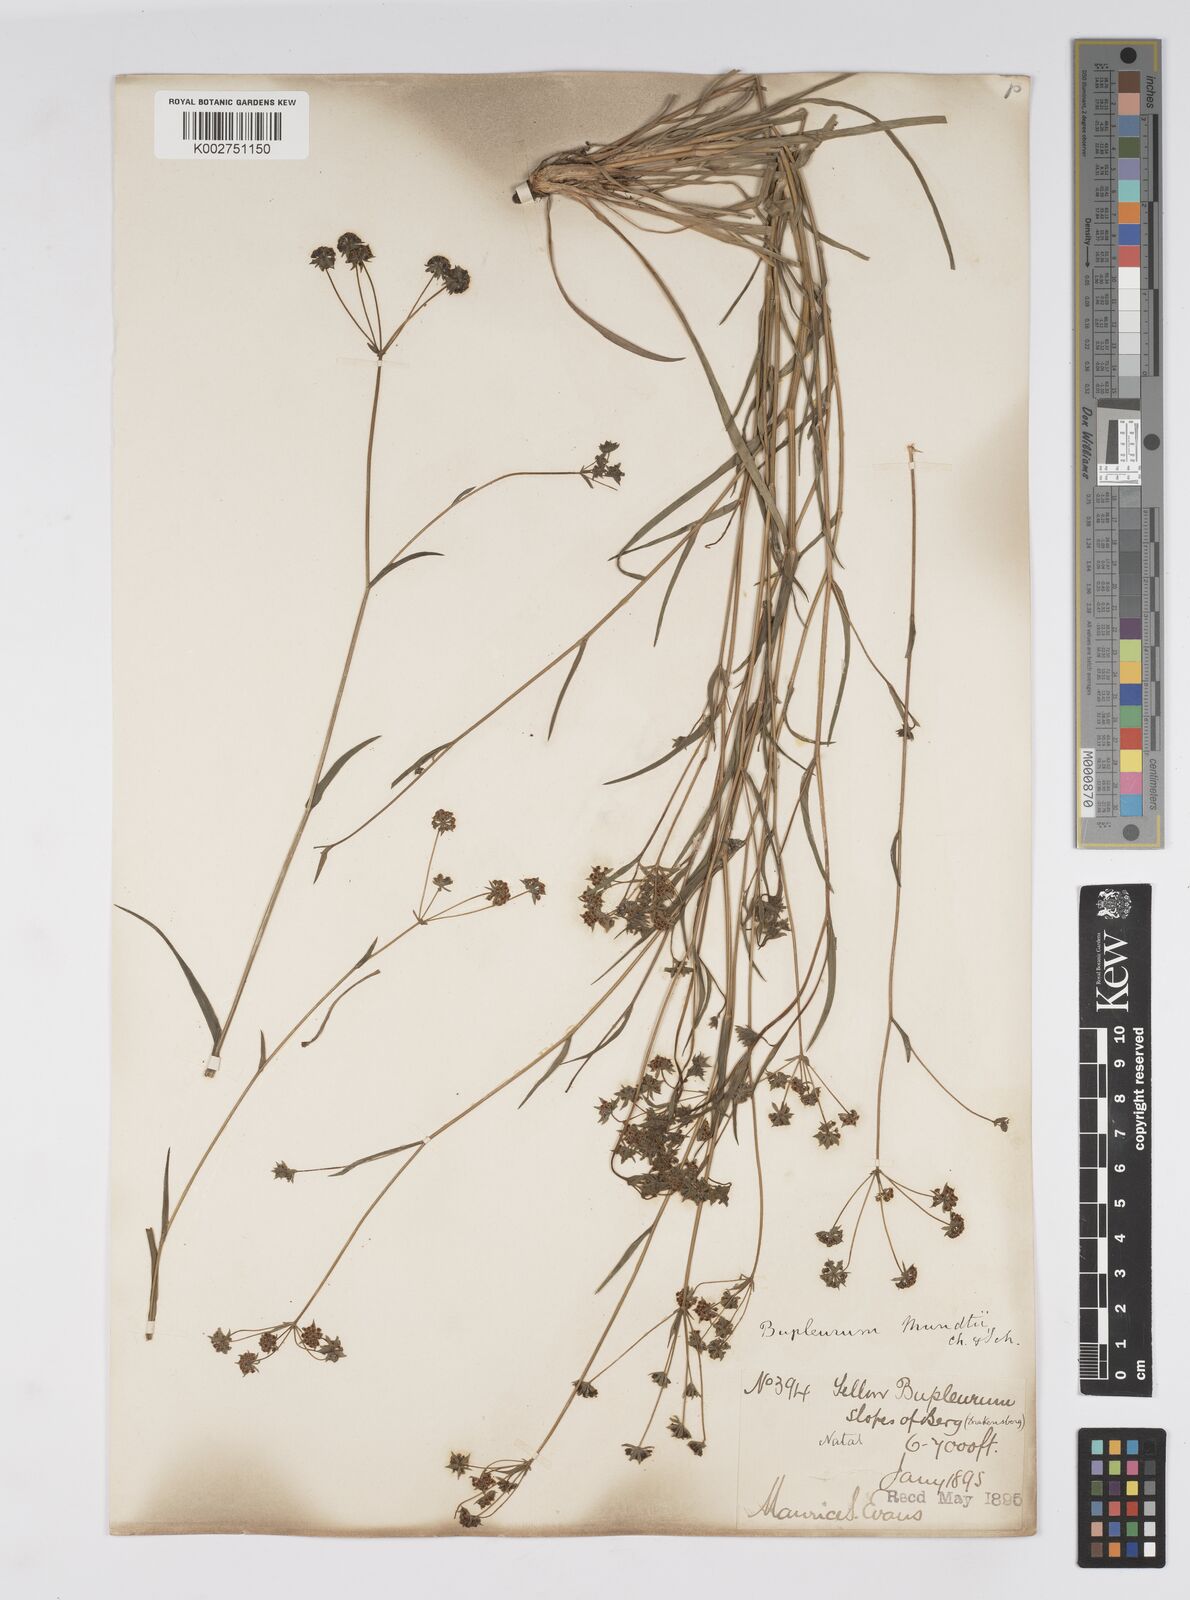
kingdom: Plantae
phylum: Tracheophyta
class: Magnoliopsida
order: Apiales
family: Apiaceae
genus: Bupleurum
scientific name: Bupleurum mundii
